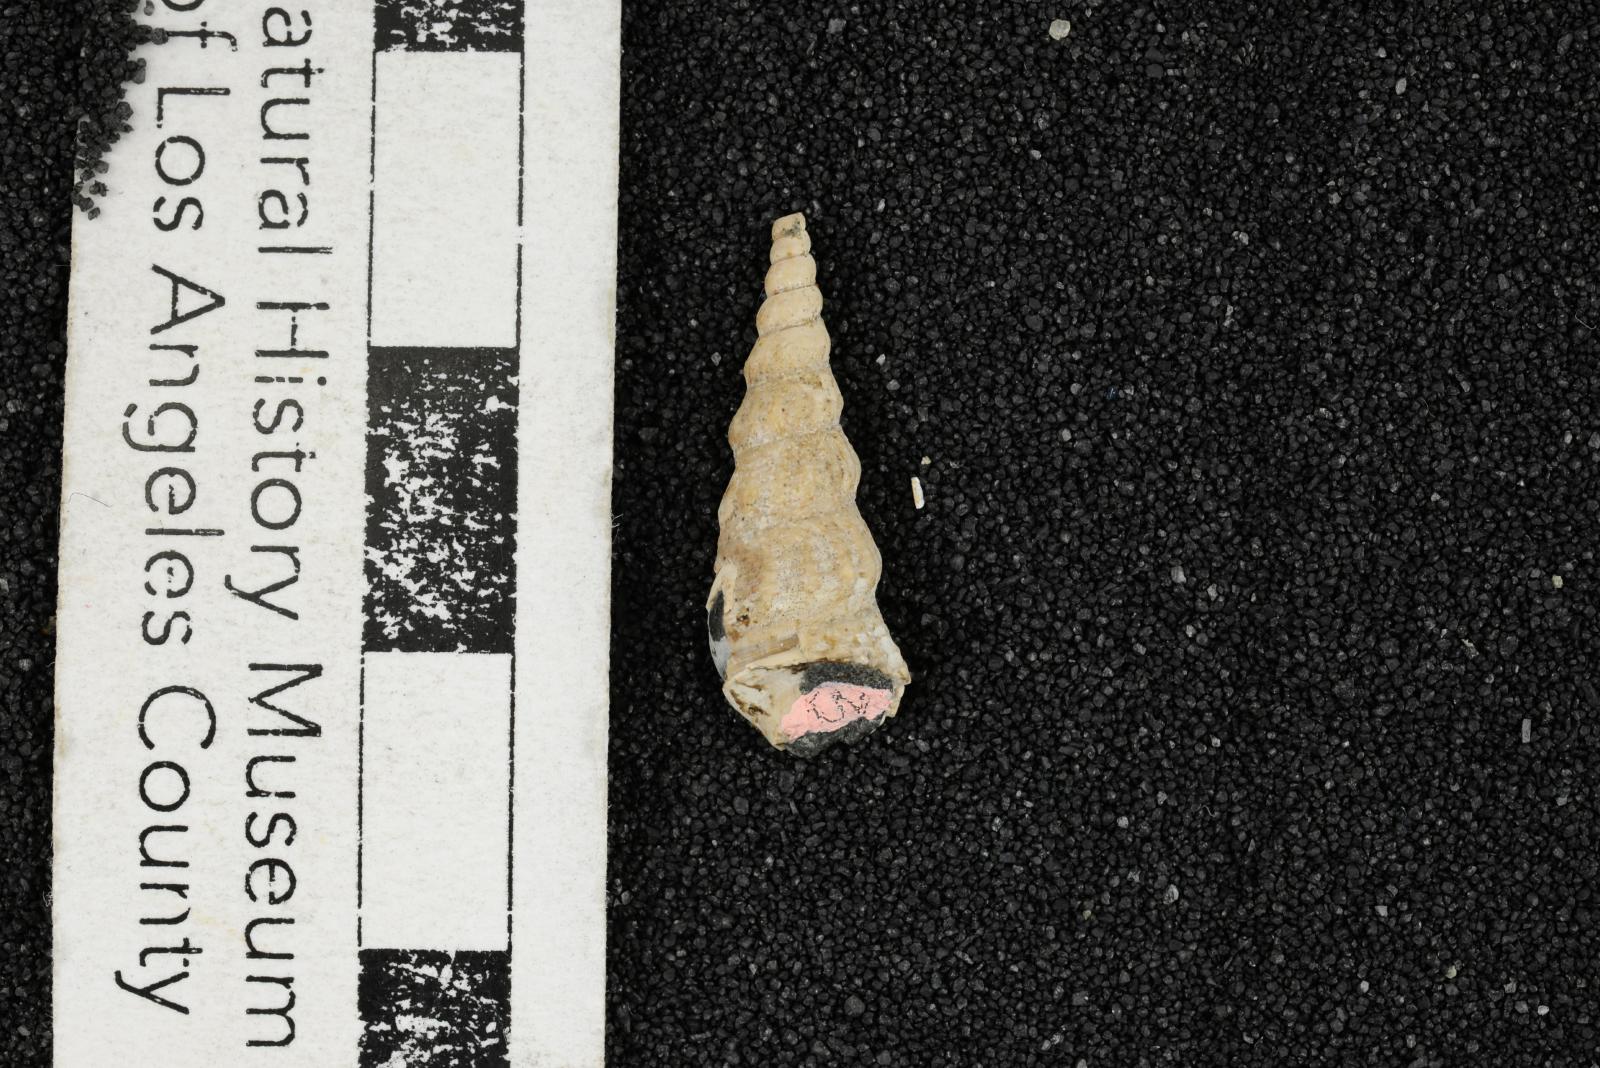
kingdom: Animalia
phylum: Mollusca
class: Gastropoda
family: Metacerithiidae
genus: Cimolithium
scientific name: Cimolithium eleanorae
